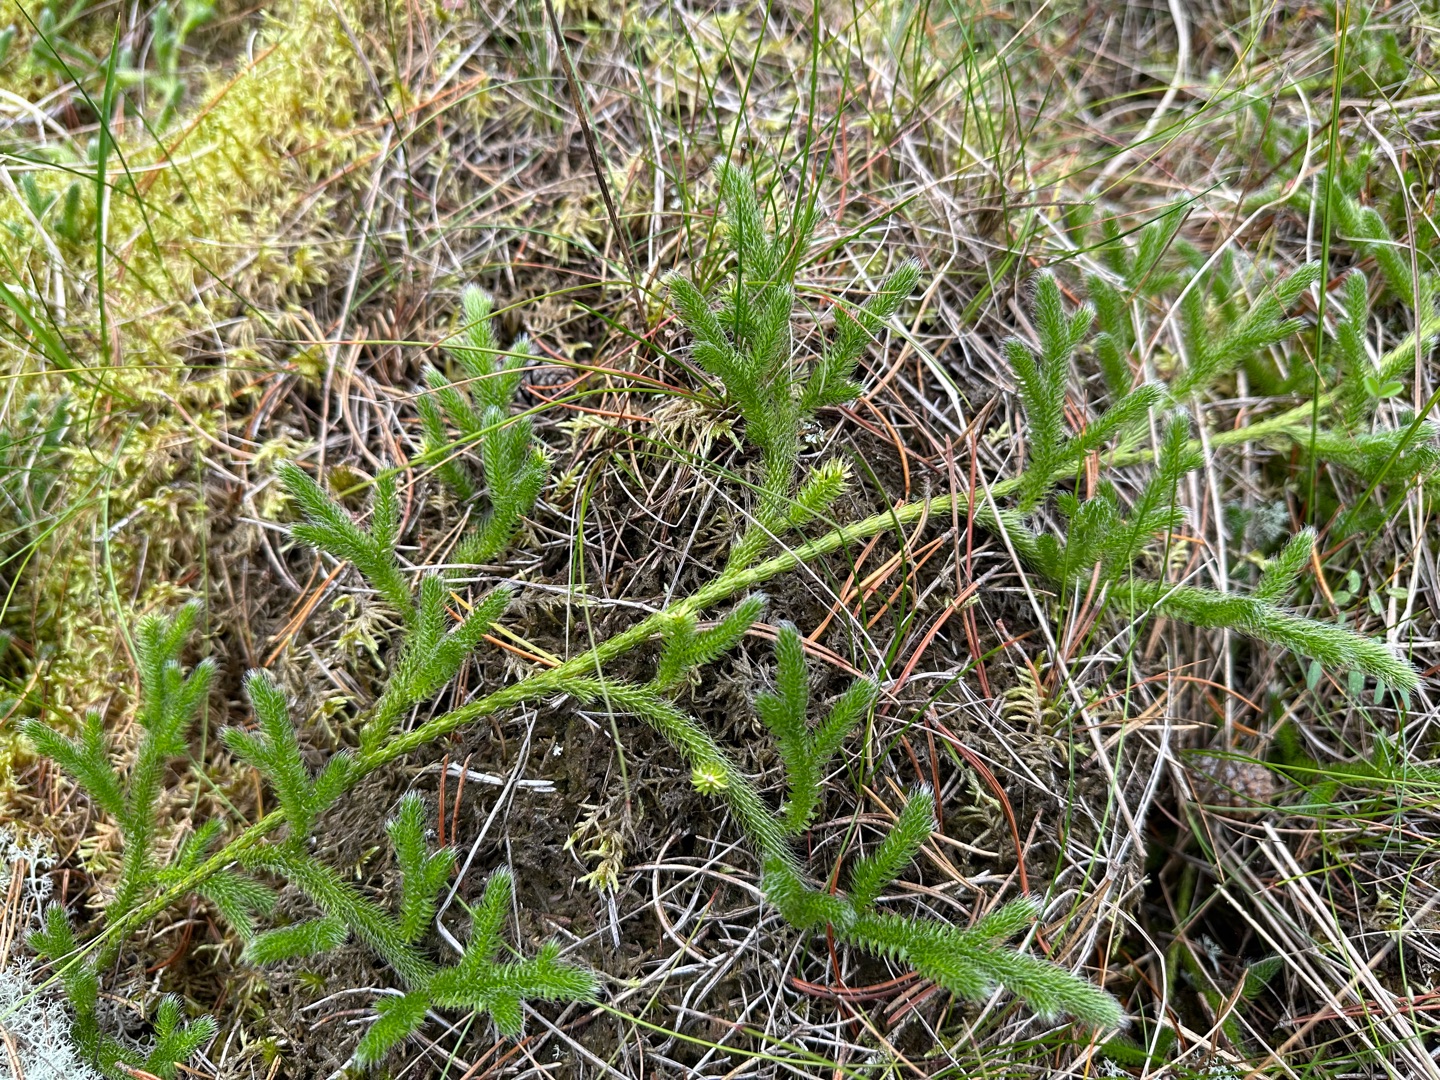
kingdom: Plantae
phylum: Tracheophyta
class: Lycopodiopsida
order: Lycopodiales
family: Lycopodiaceae
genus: Lycopodium
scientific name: Lycopodium clavatum
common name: Almindelig ulvefod
